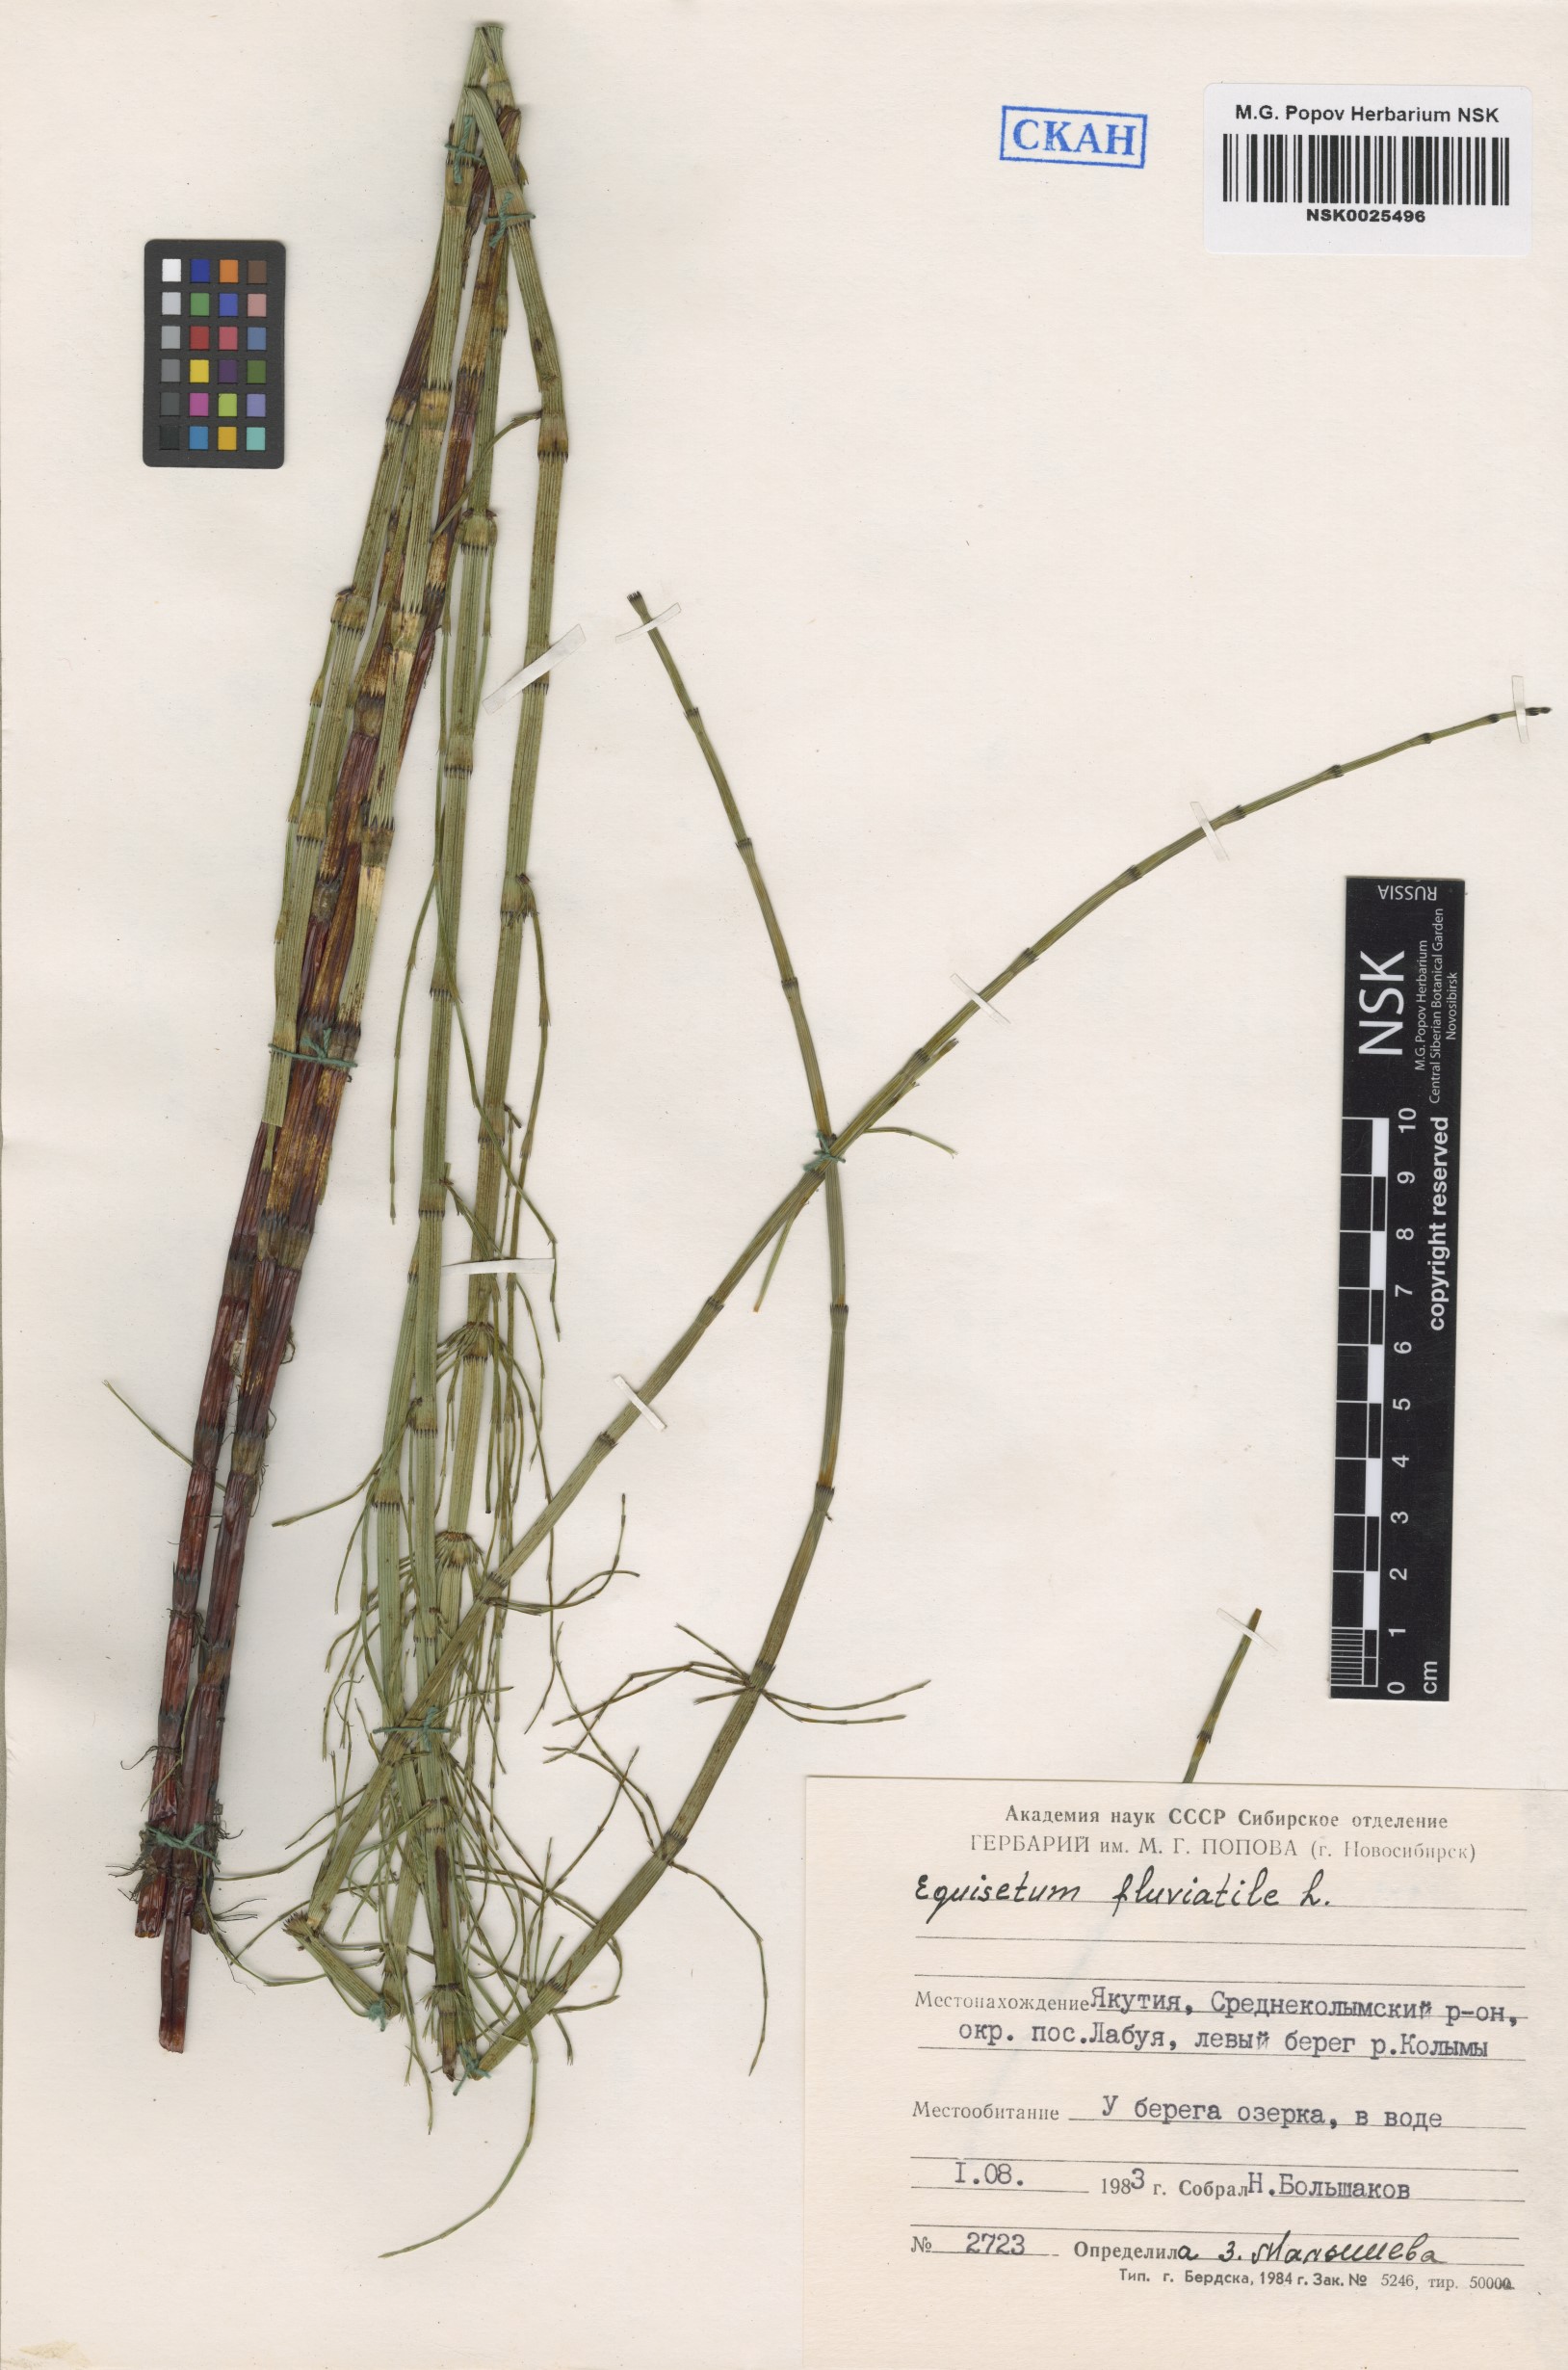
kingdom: Plantae
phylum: Tracheophyta
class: Polypodiopsida
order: Equisetales
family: Equisetaceae
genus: Equisetum
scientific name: Equisetum fluviatile
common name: Water horsetail
